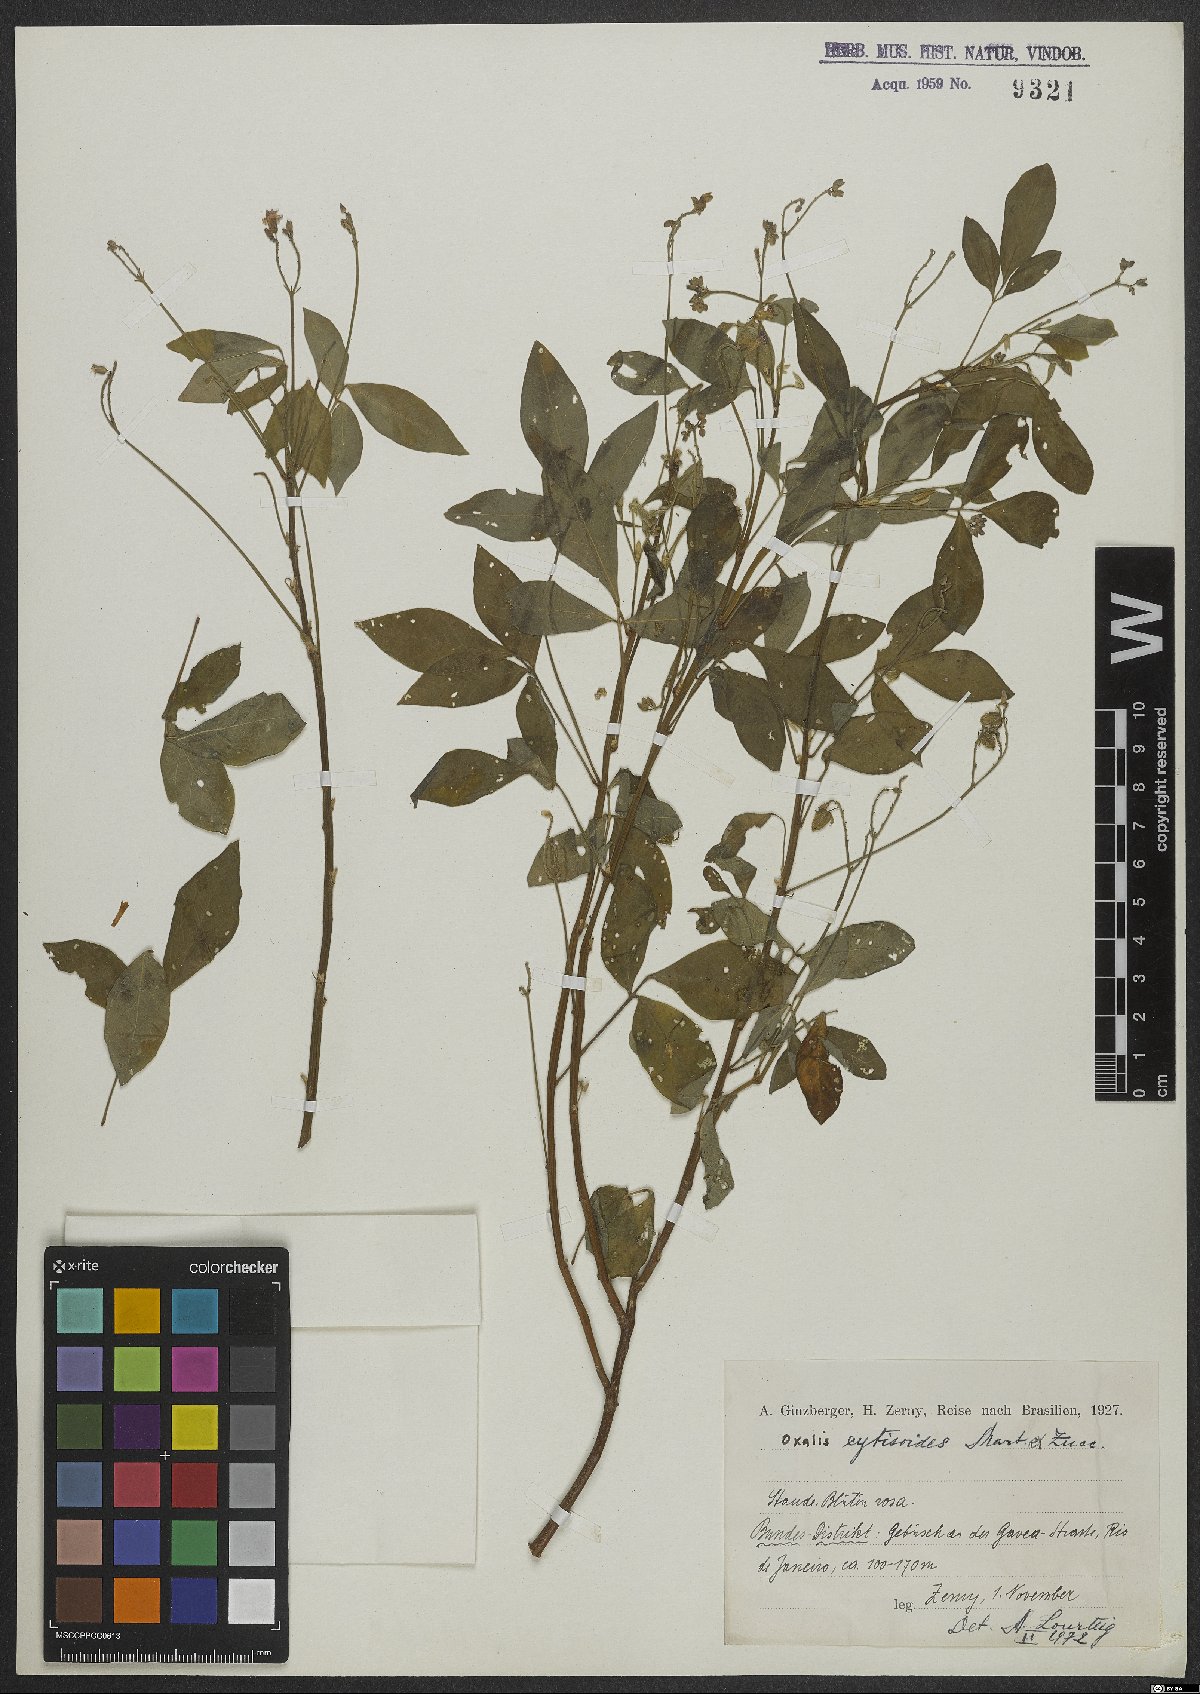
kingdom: Plantae
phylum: Tracheophyta
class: Magnoliopsida
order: Oxalidales
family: Oxalidaceae
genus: Oxalis
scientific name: Oxalis cytisoides
